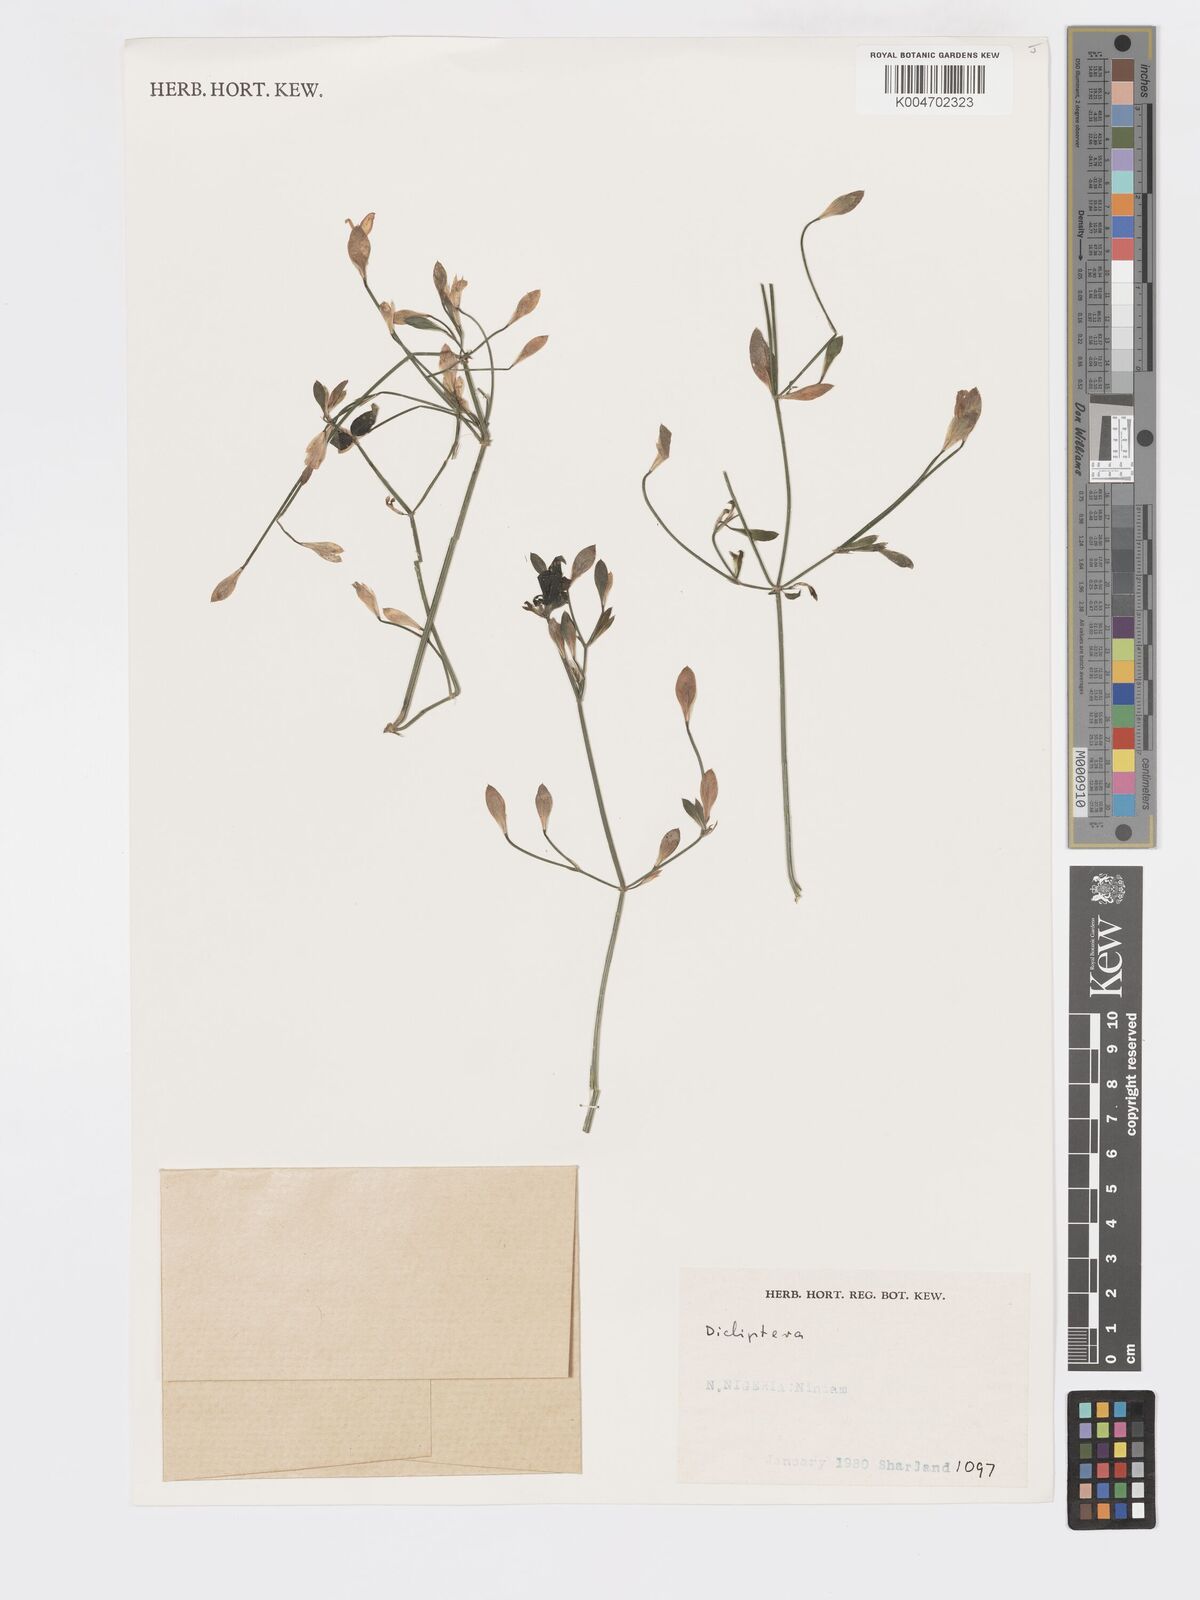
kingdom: Plantae
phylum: Tracheophyta
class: Magnoliopsida
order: Lamiales
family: Acanthaceae
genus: Dicliptera
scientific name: Dicliptera
